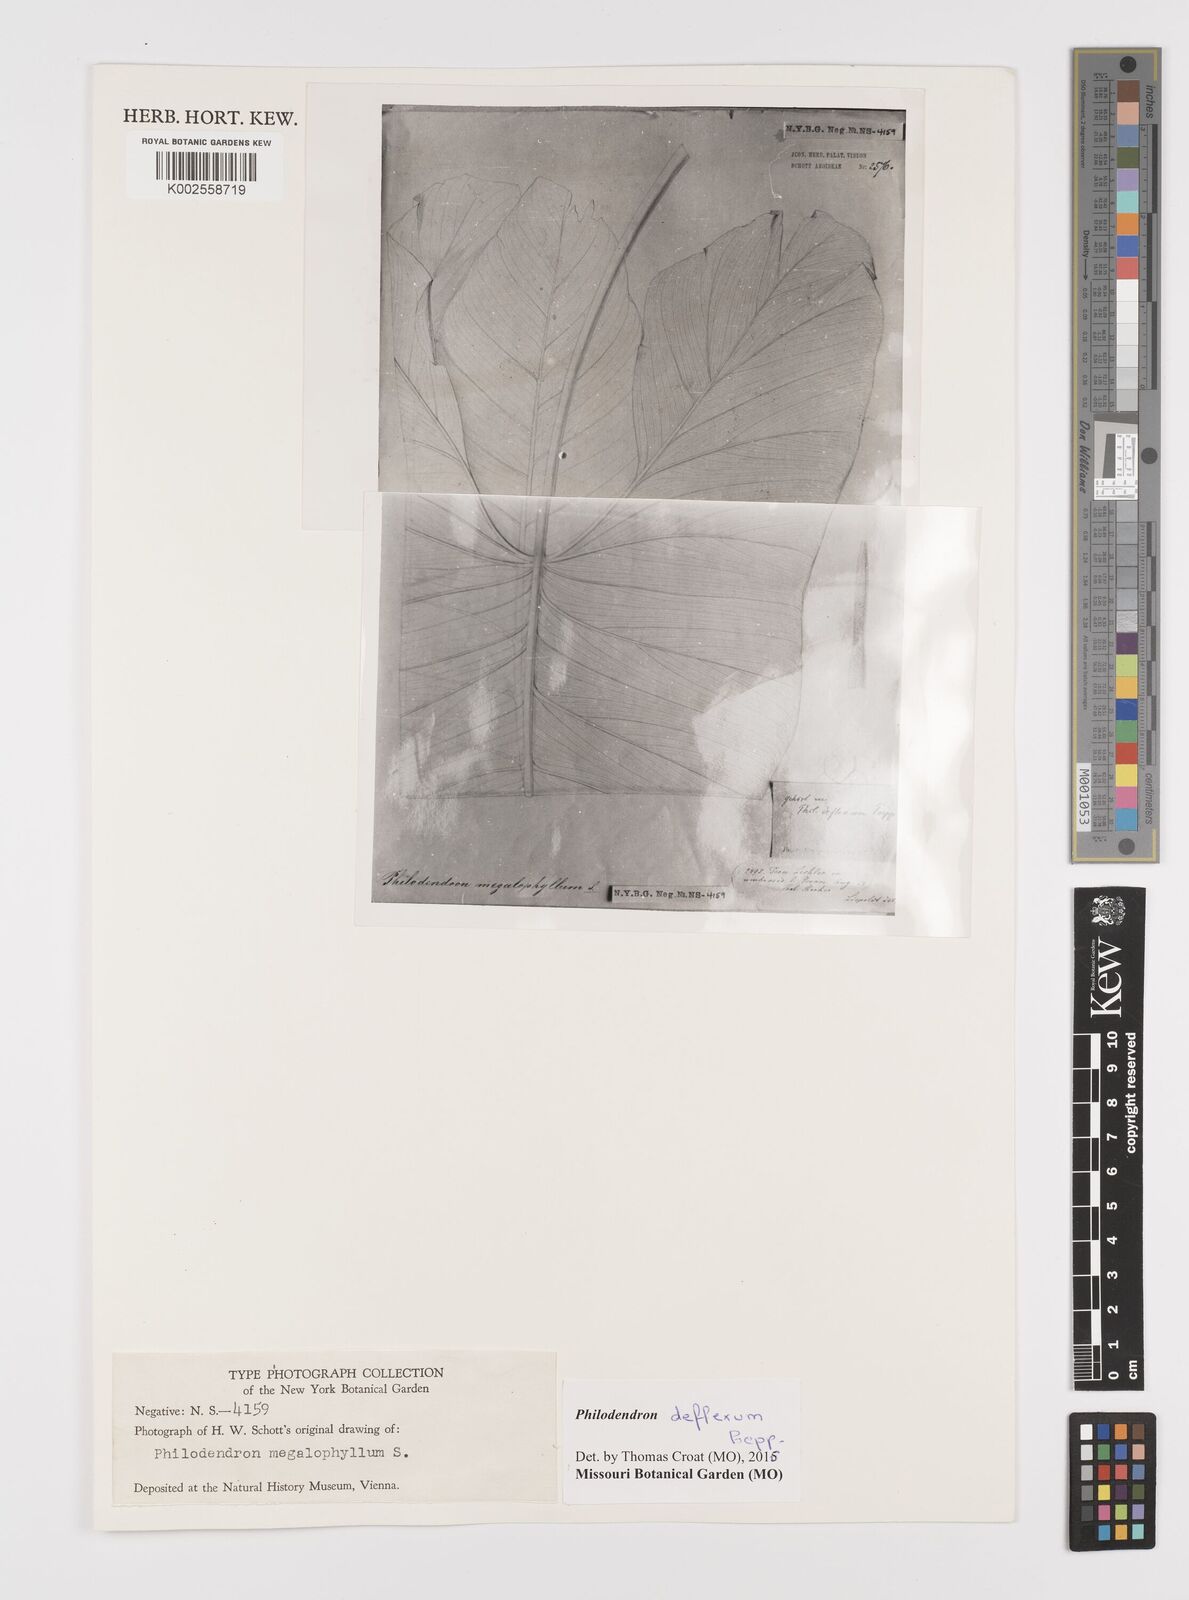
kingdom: Plantae
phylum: Tracheophyta
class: Liliopsida
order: Alismatales
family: Araceae
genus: Philodendron
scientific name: Philodendron deflexum
